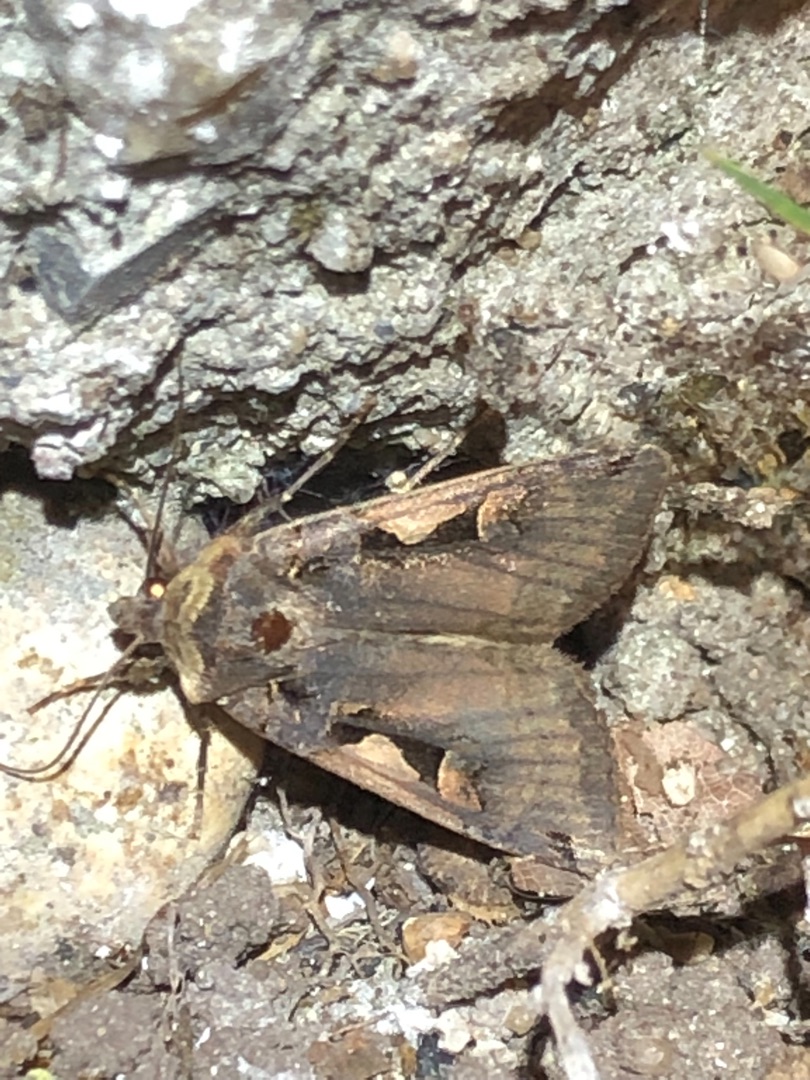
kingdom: Animalia
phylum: Arthropoda
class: Insecta
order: Lepidoptera
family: Noctuidae
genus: Xestia
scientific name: Xestia c-nigrum
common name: Det sorte c
